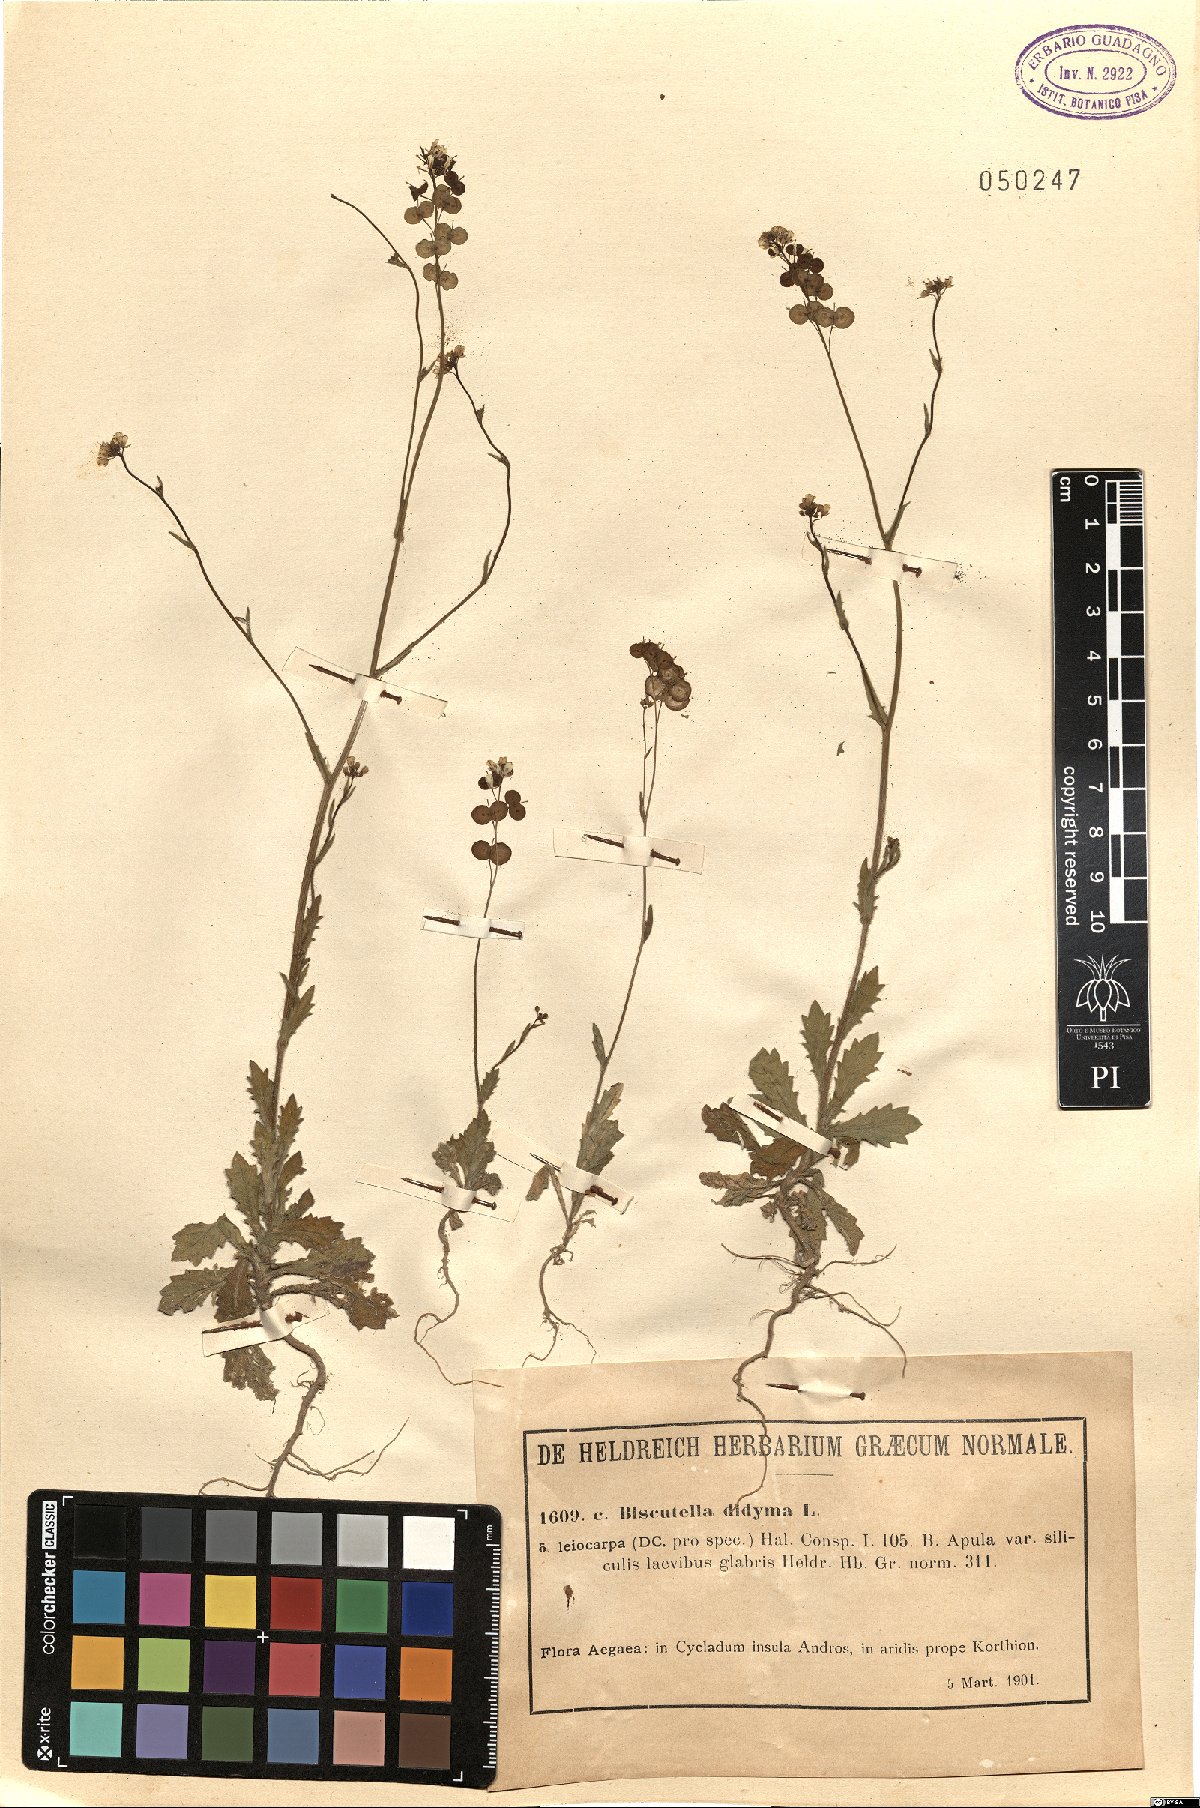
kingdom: Plantae
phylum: Tracheophyta
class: Magnoliopsida
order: Brassicales
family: Brassicaceae
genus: Biscutella
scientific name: Biscutella didyma
